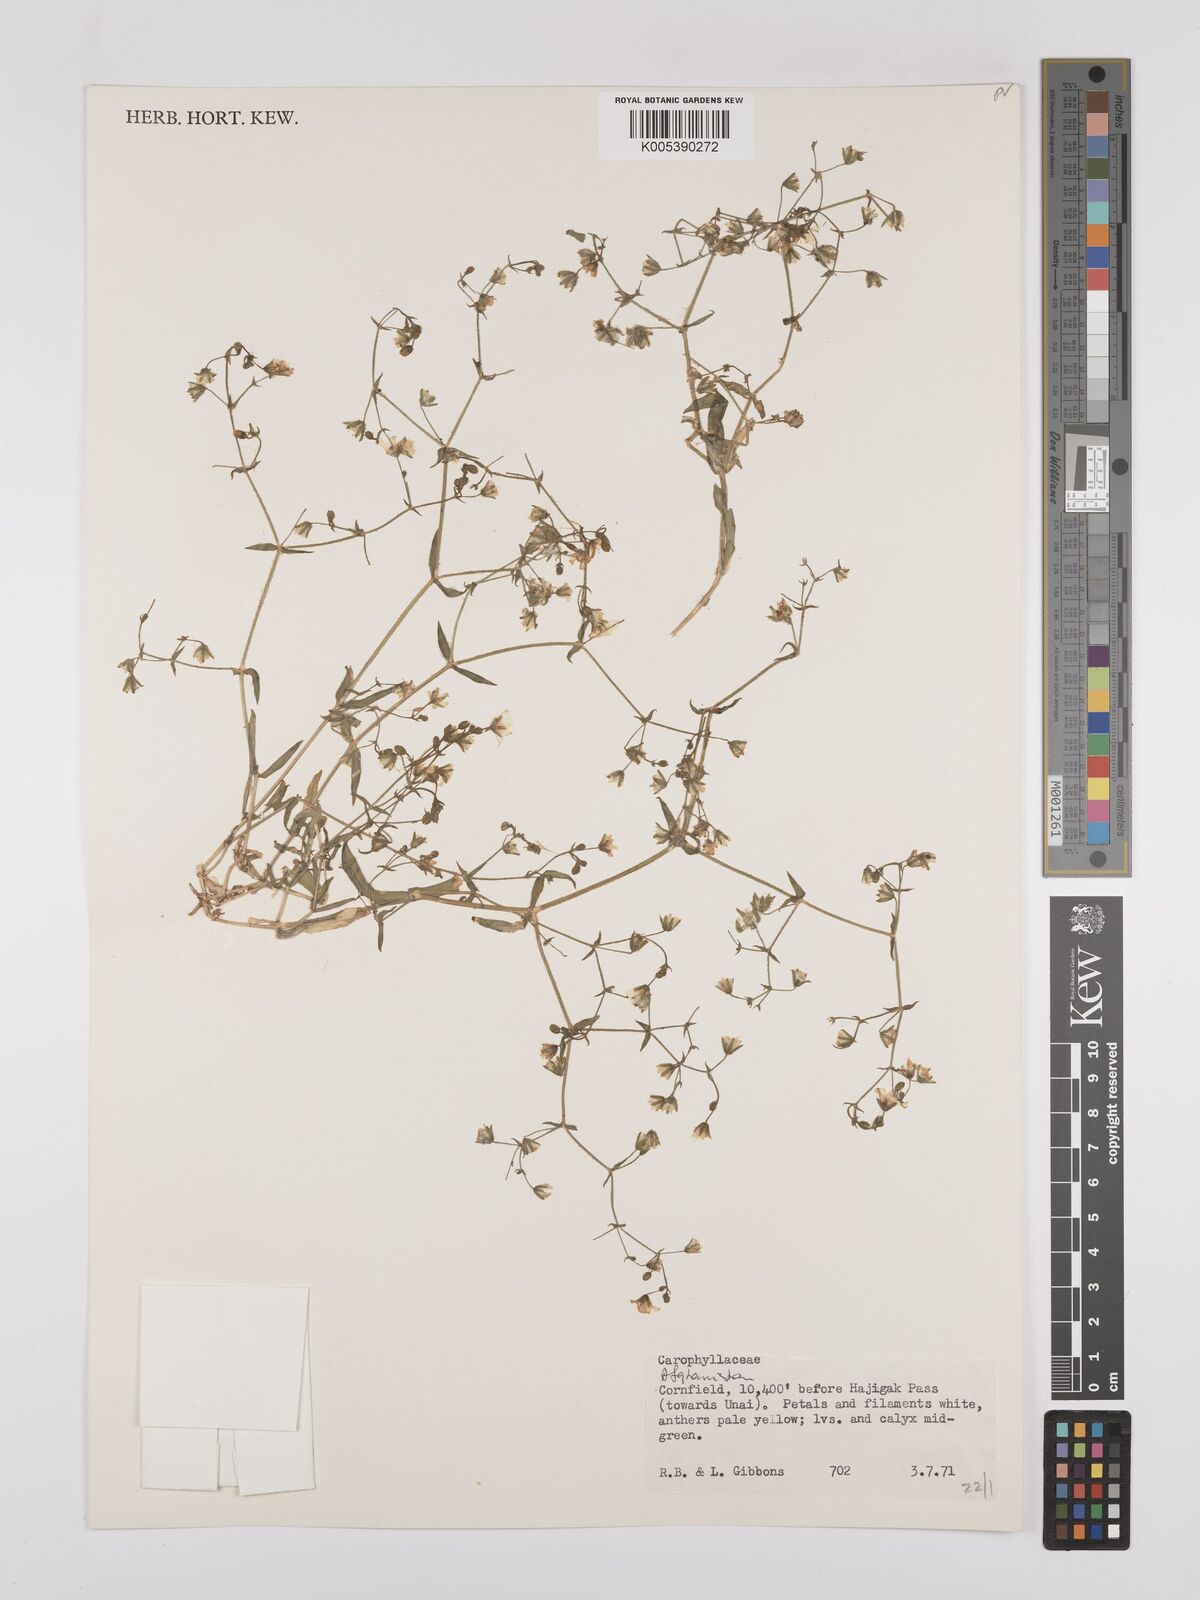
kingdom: Plantae
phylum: Tracheophyta
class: Magnoliopsida
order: Caryophyllales
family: Caryophyllaceae
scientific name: Caryophyllaceae
